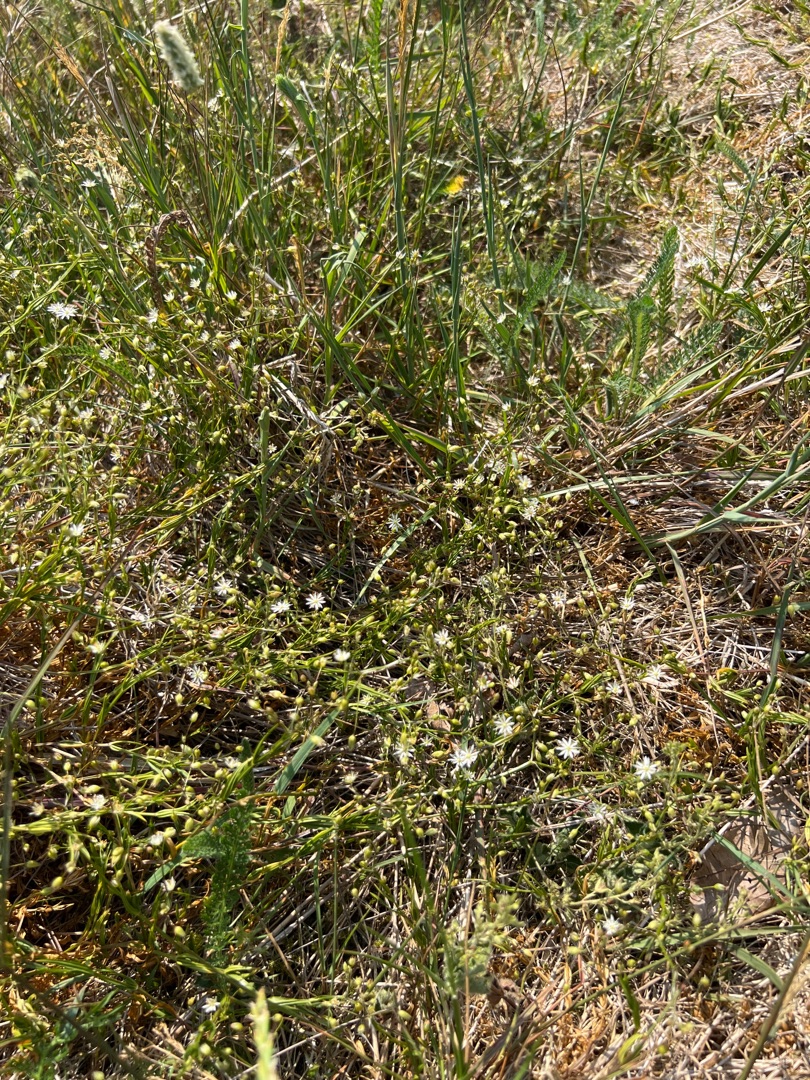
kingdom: Plantae
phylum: Tracheophyta
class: Magnoliopsida
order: Caryophyllales
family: Caryophyllaceae
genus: Stellaria
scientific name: Stellaria graminea
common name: Græsbladet fladstjerne
